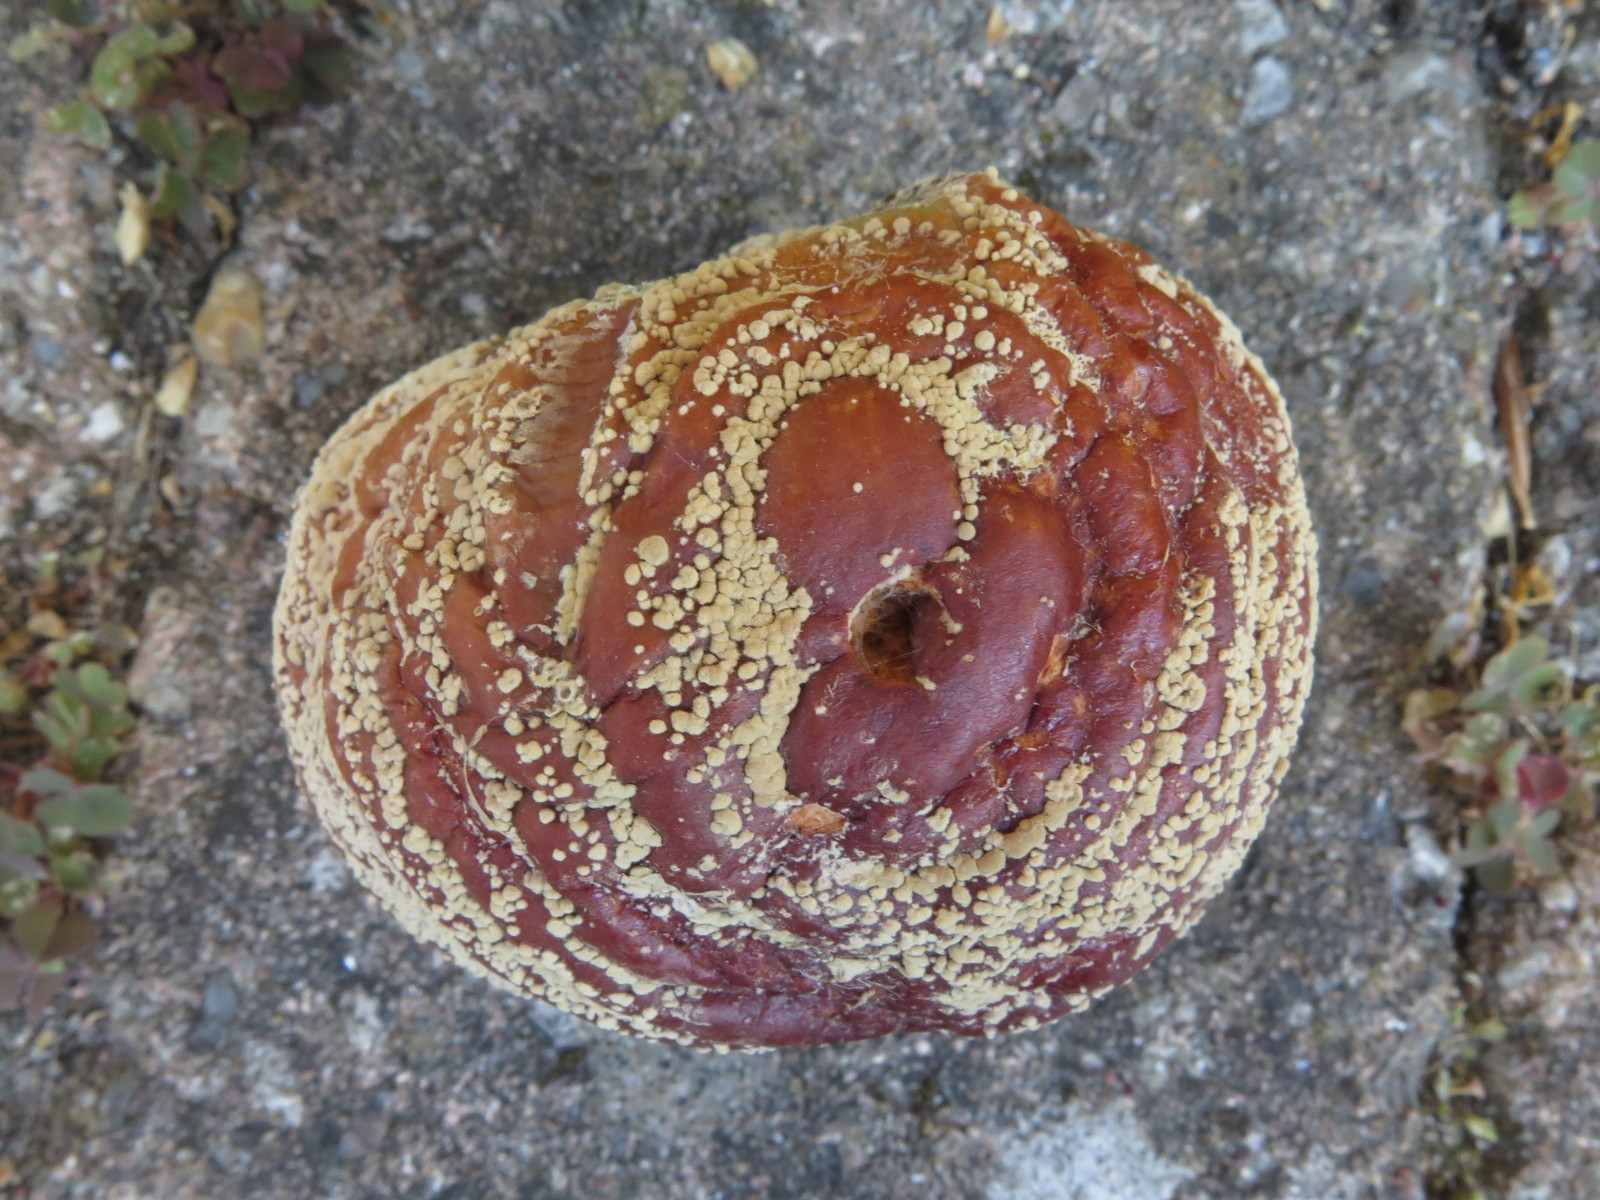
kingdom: Fungi
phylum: Ascomycota
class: Leotiomycetes
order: Helotiales
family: Sclerotiniaceae
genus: Monilinia
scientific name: Monilinia fructigena
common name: æble-knoldskive
